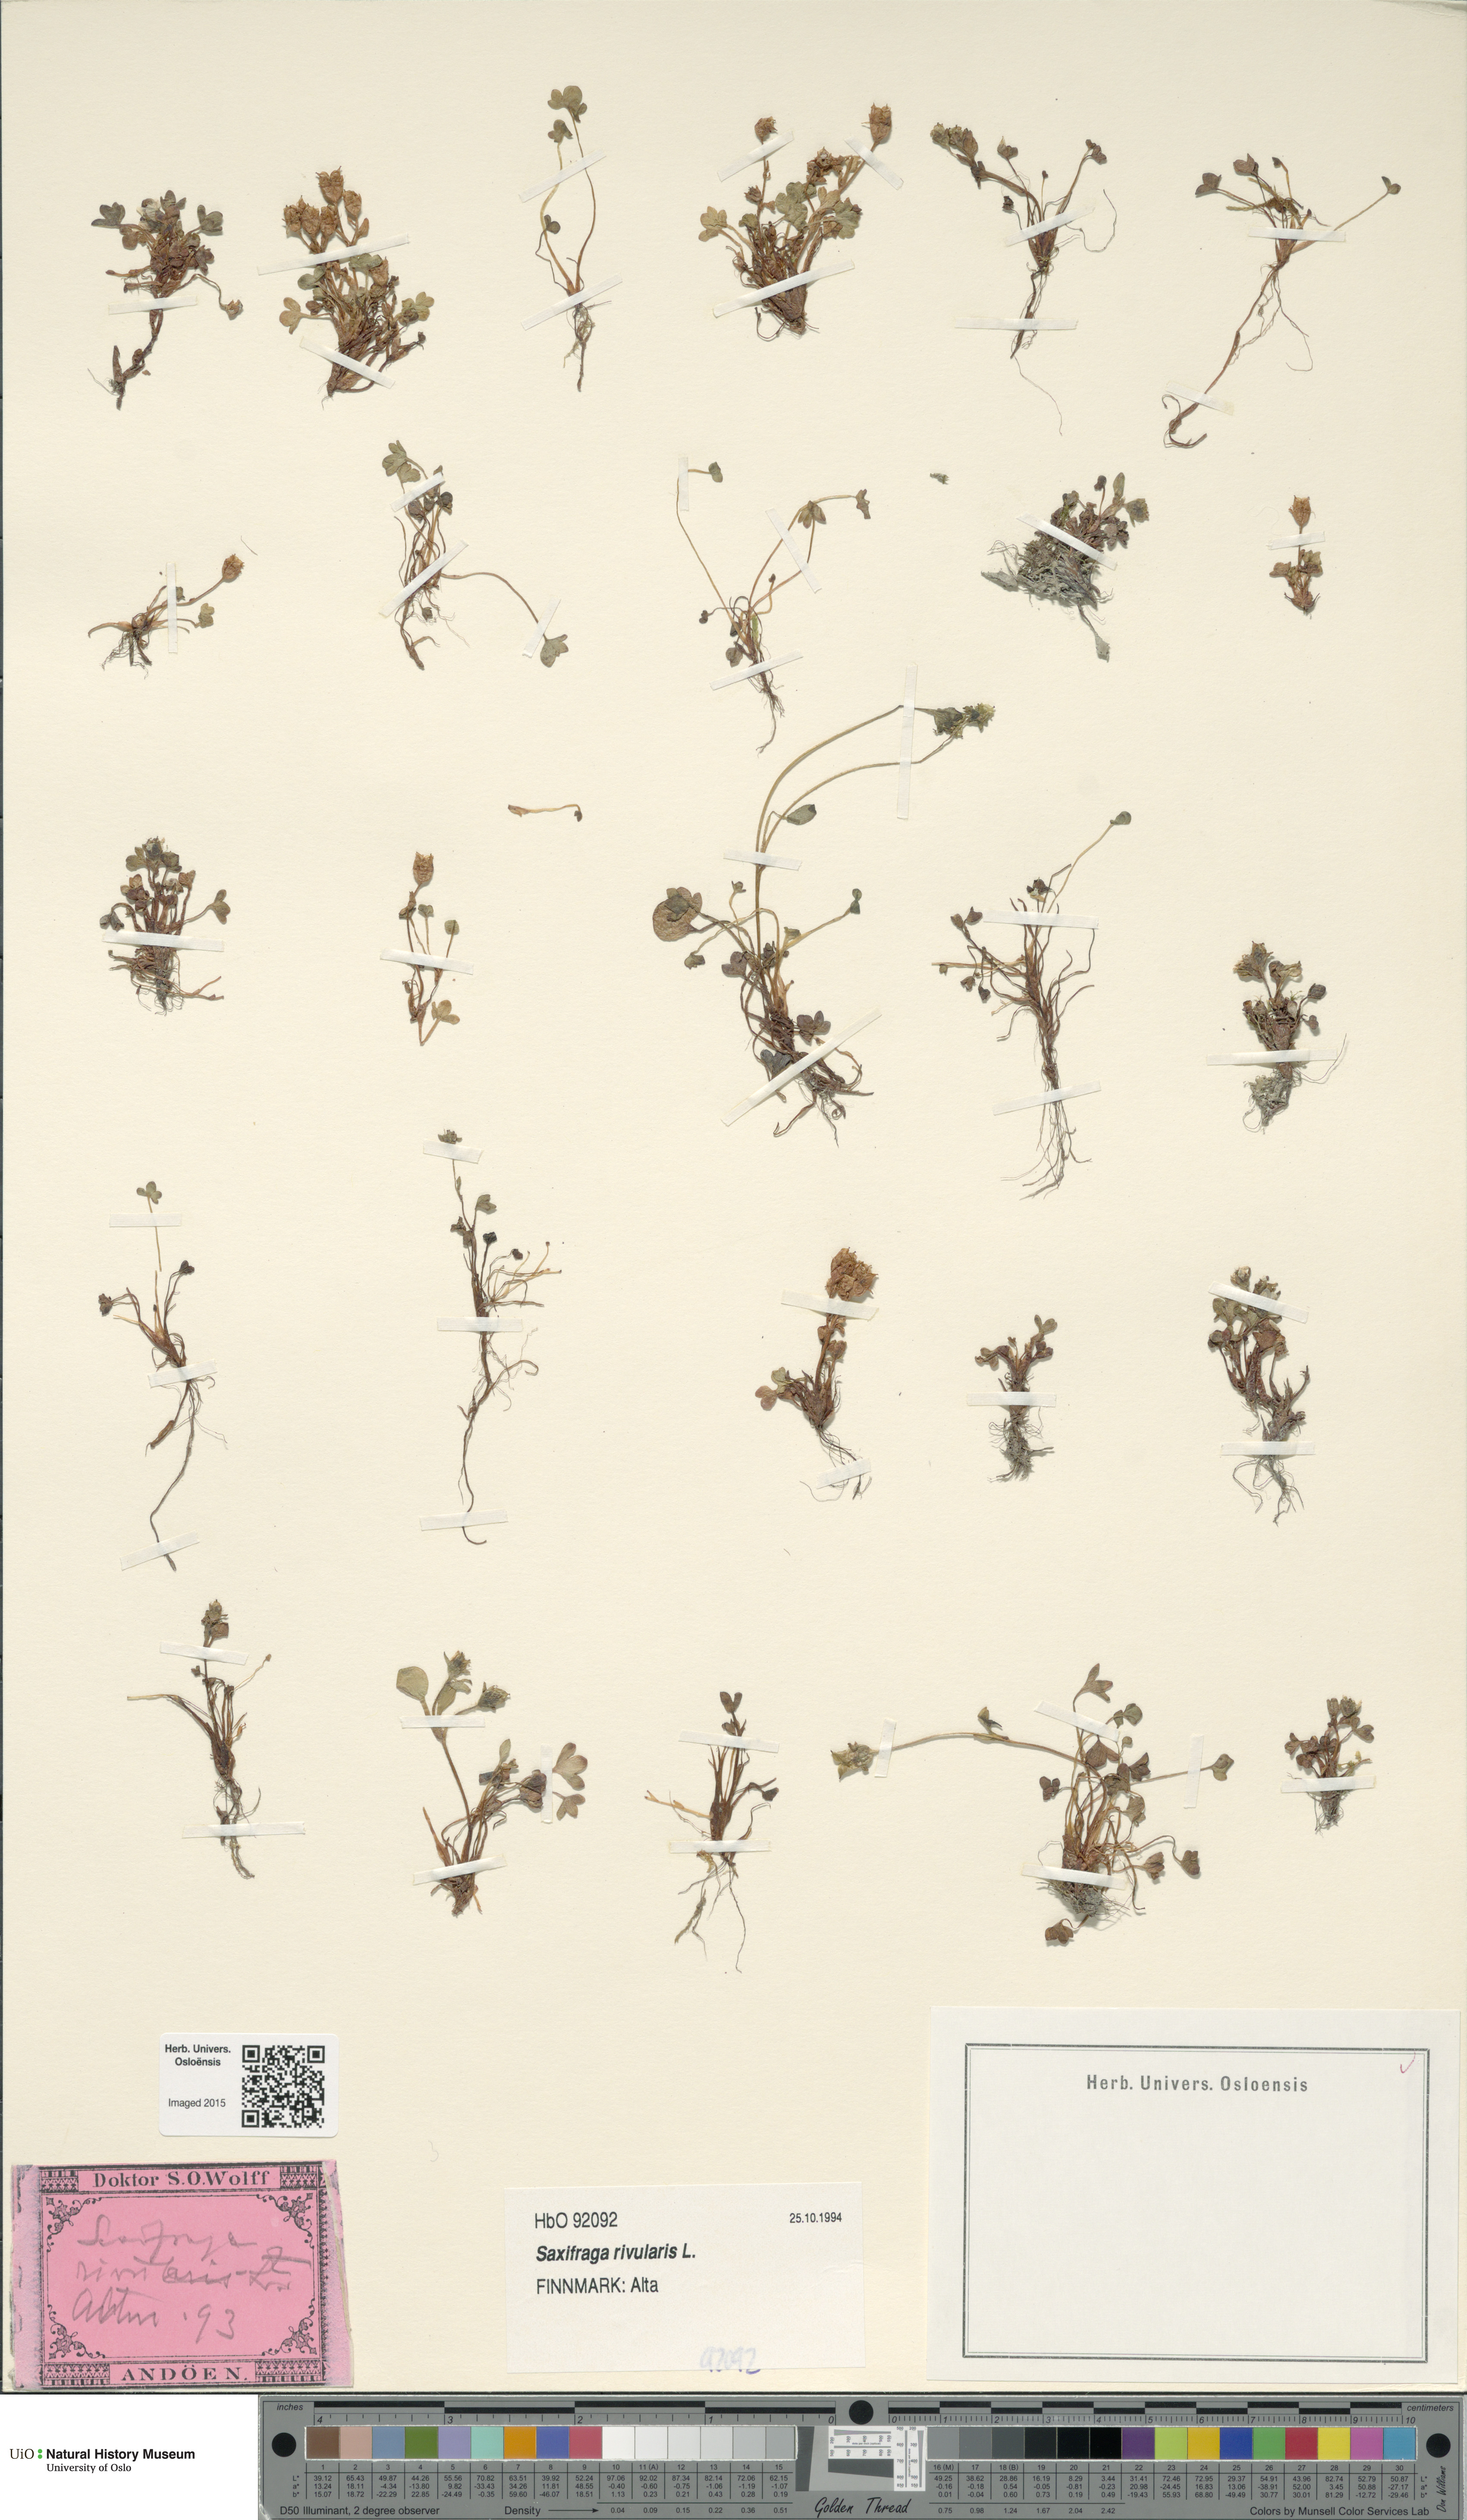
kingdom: Plantae
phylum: Tracheophyta
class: Magnoliopsida
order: Saxifragales
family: Saxifragaceae
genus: Saxifraga
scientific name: Saxifraga rivularis
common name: Highland saxifrage
